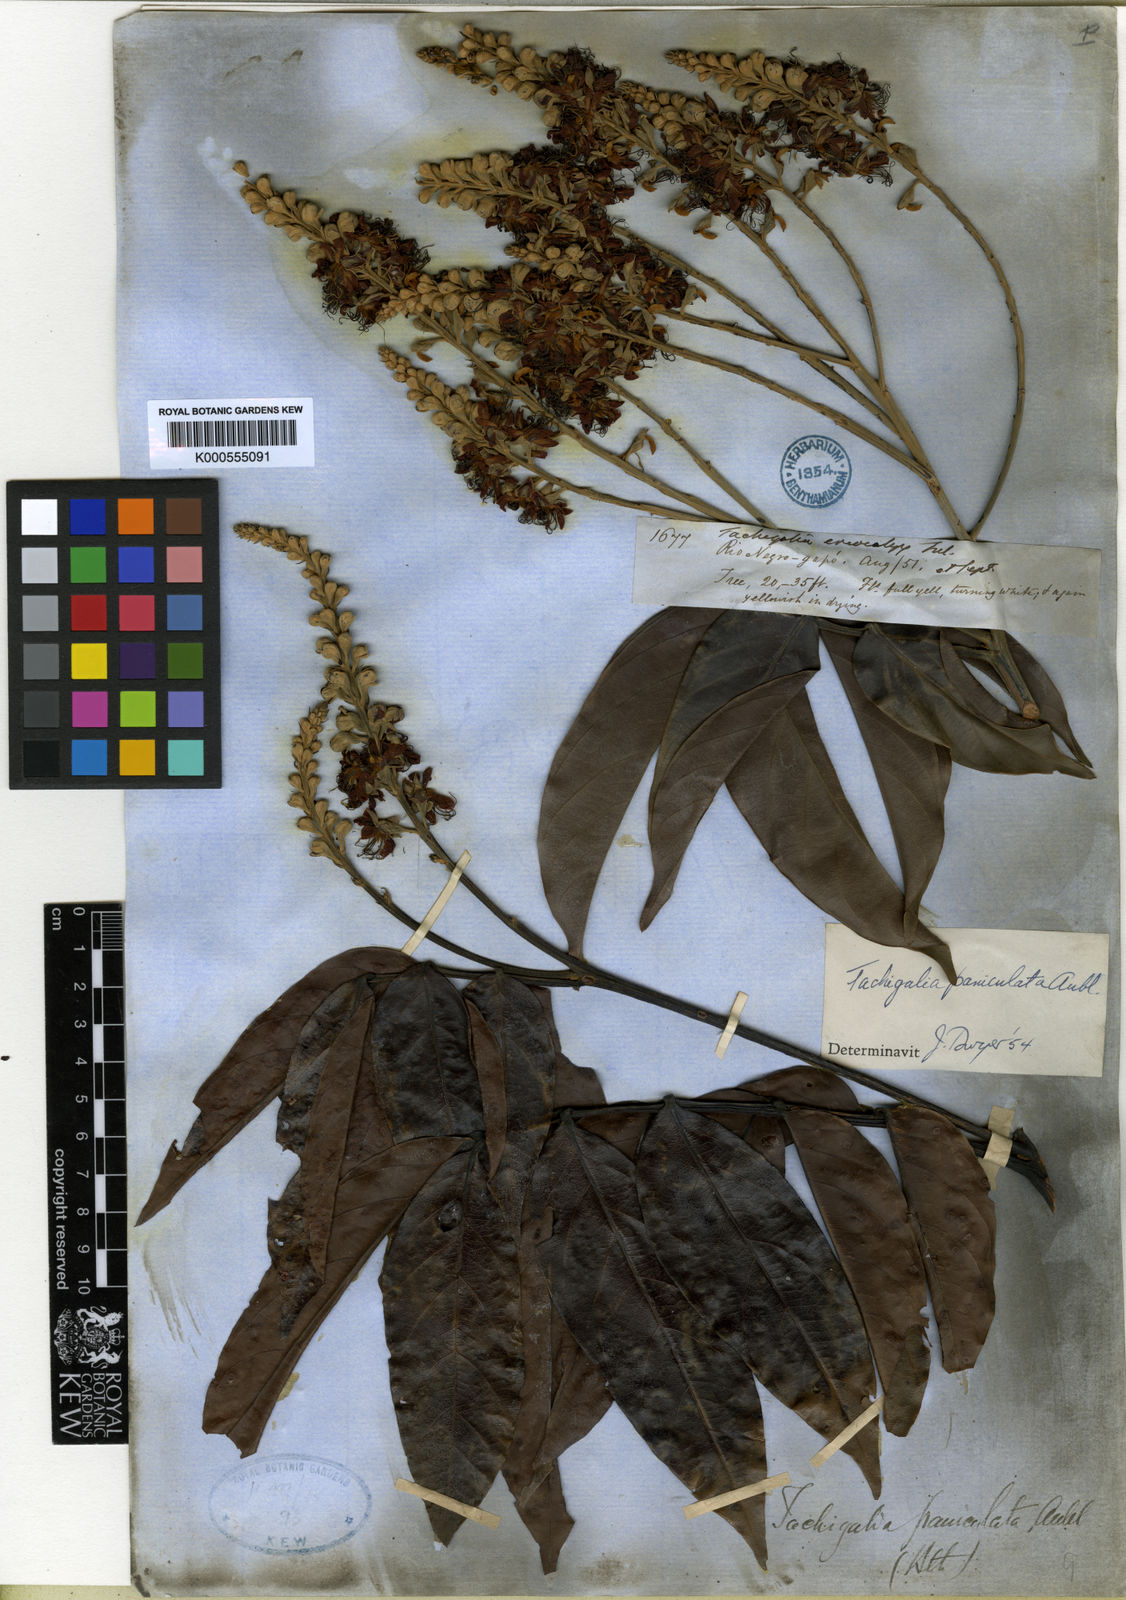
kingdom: Plantae
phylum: Tracheophyta
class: Magnoliopsida
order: Fabales
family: Fabaceae
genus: Tachigali
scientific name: Tachigali paniculata
